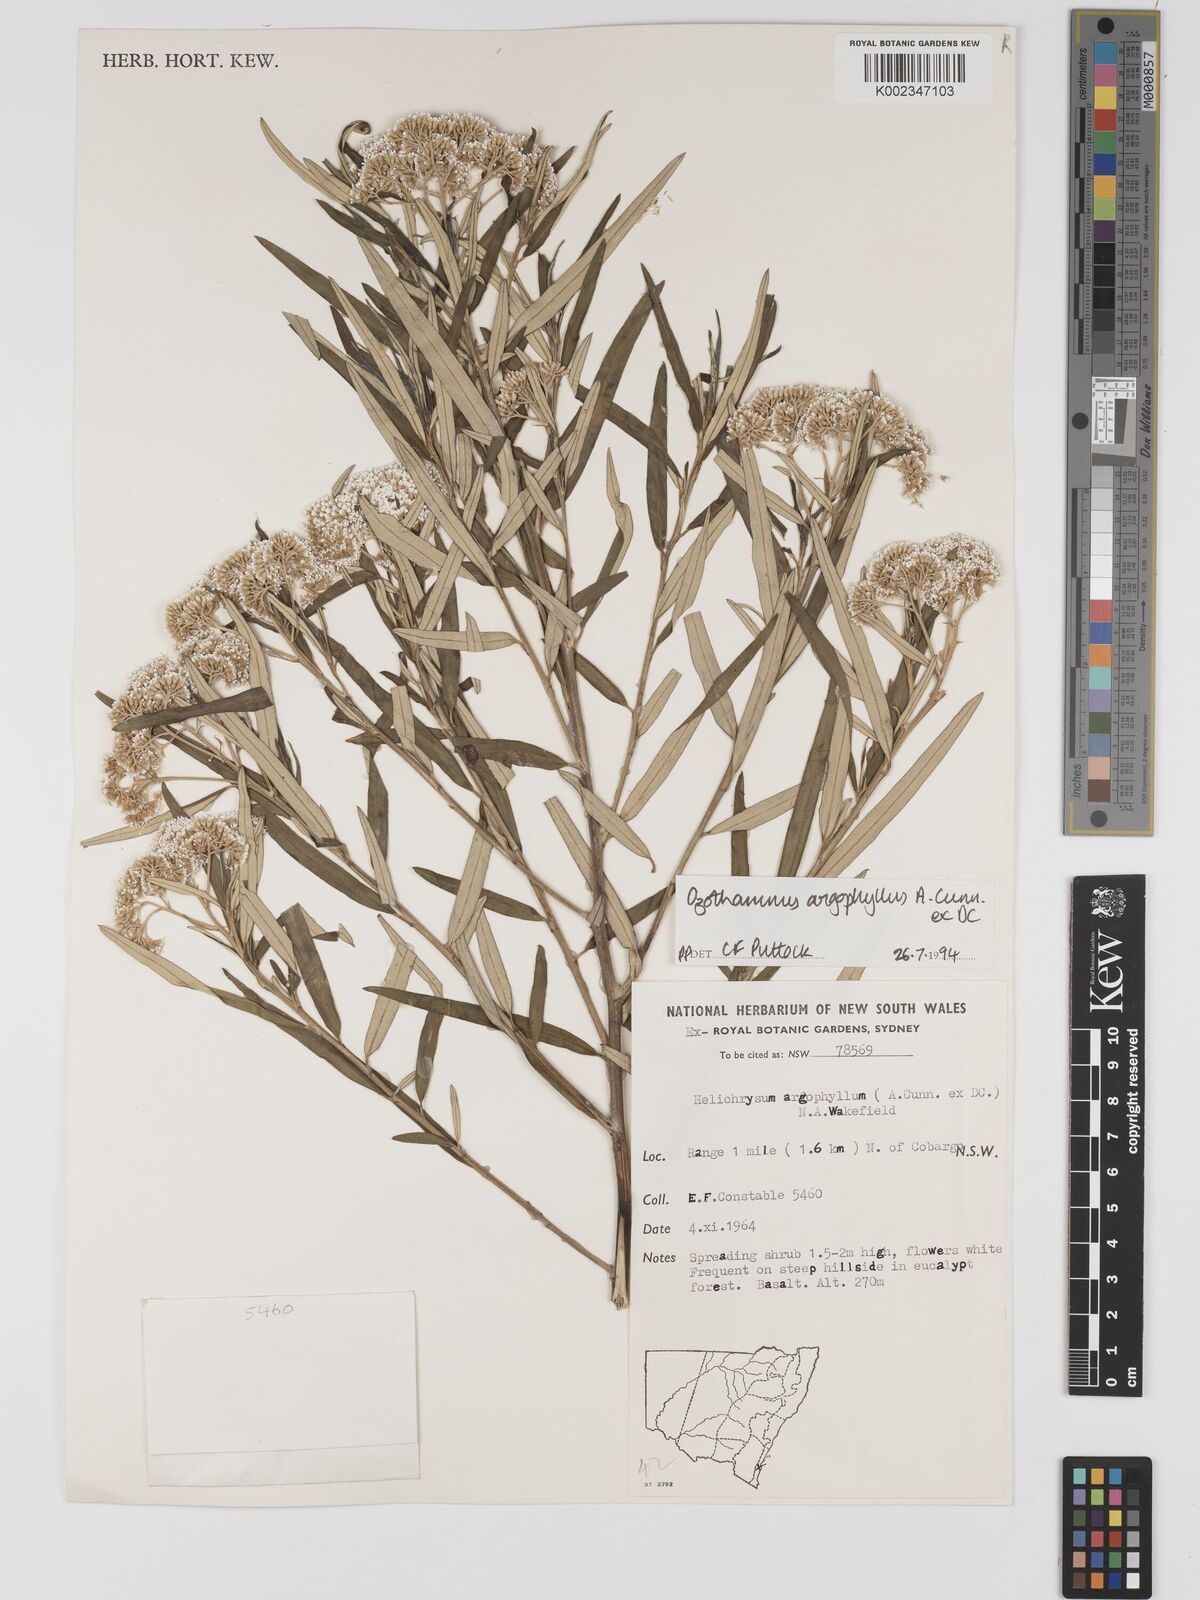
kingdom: Plantae
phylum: Tracheophyta
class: Magnoliopsida
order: Asterales
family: Asteraceae
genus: Ozothamnus
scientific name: Ozothamnus argophyllus
